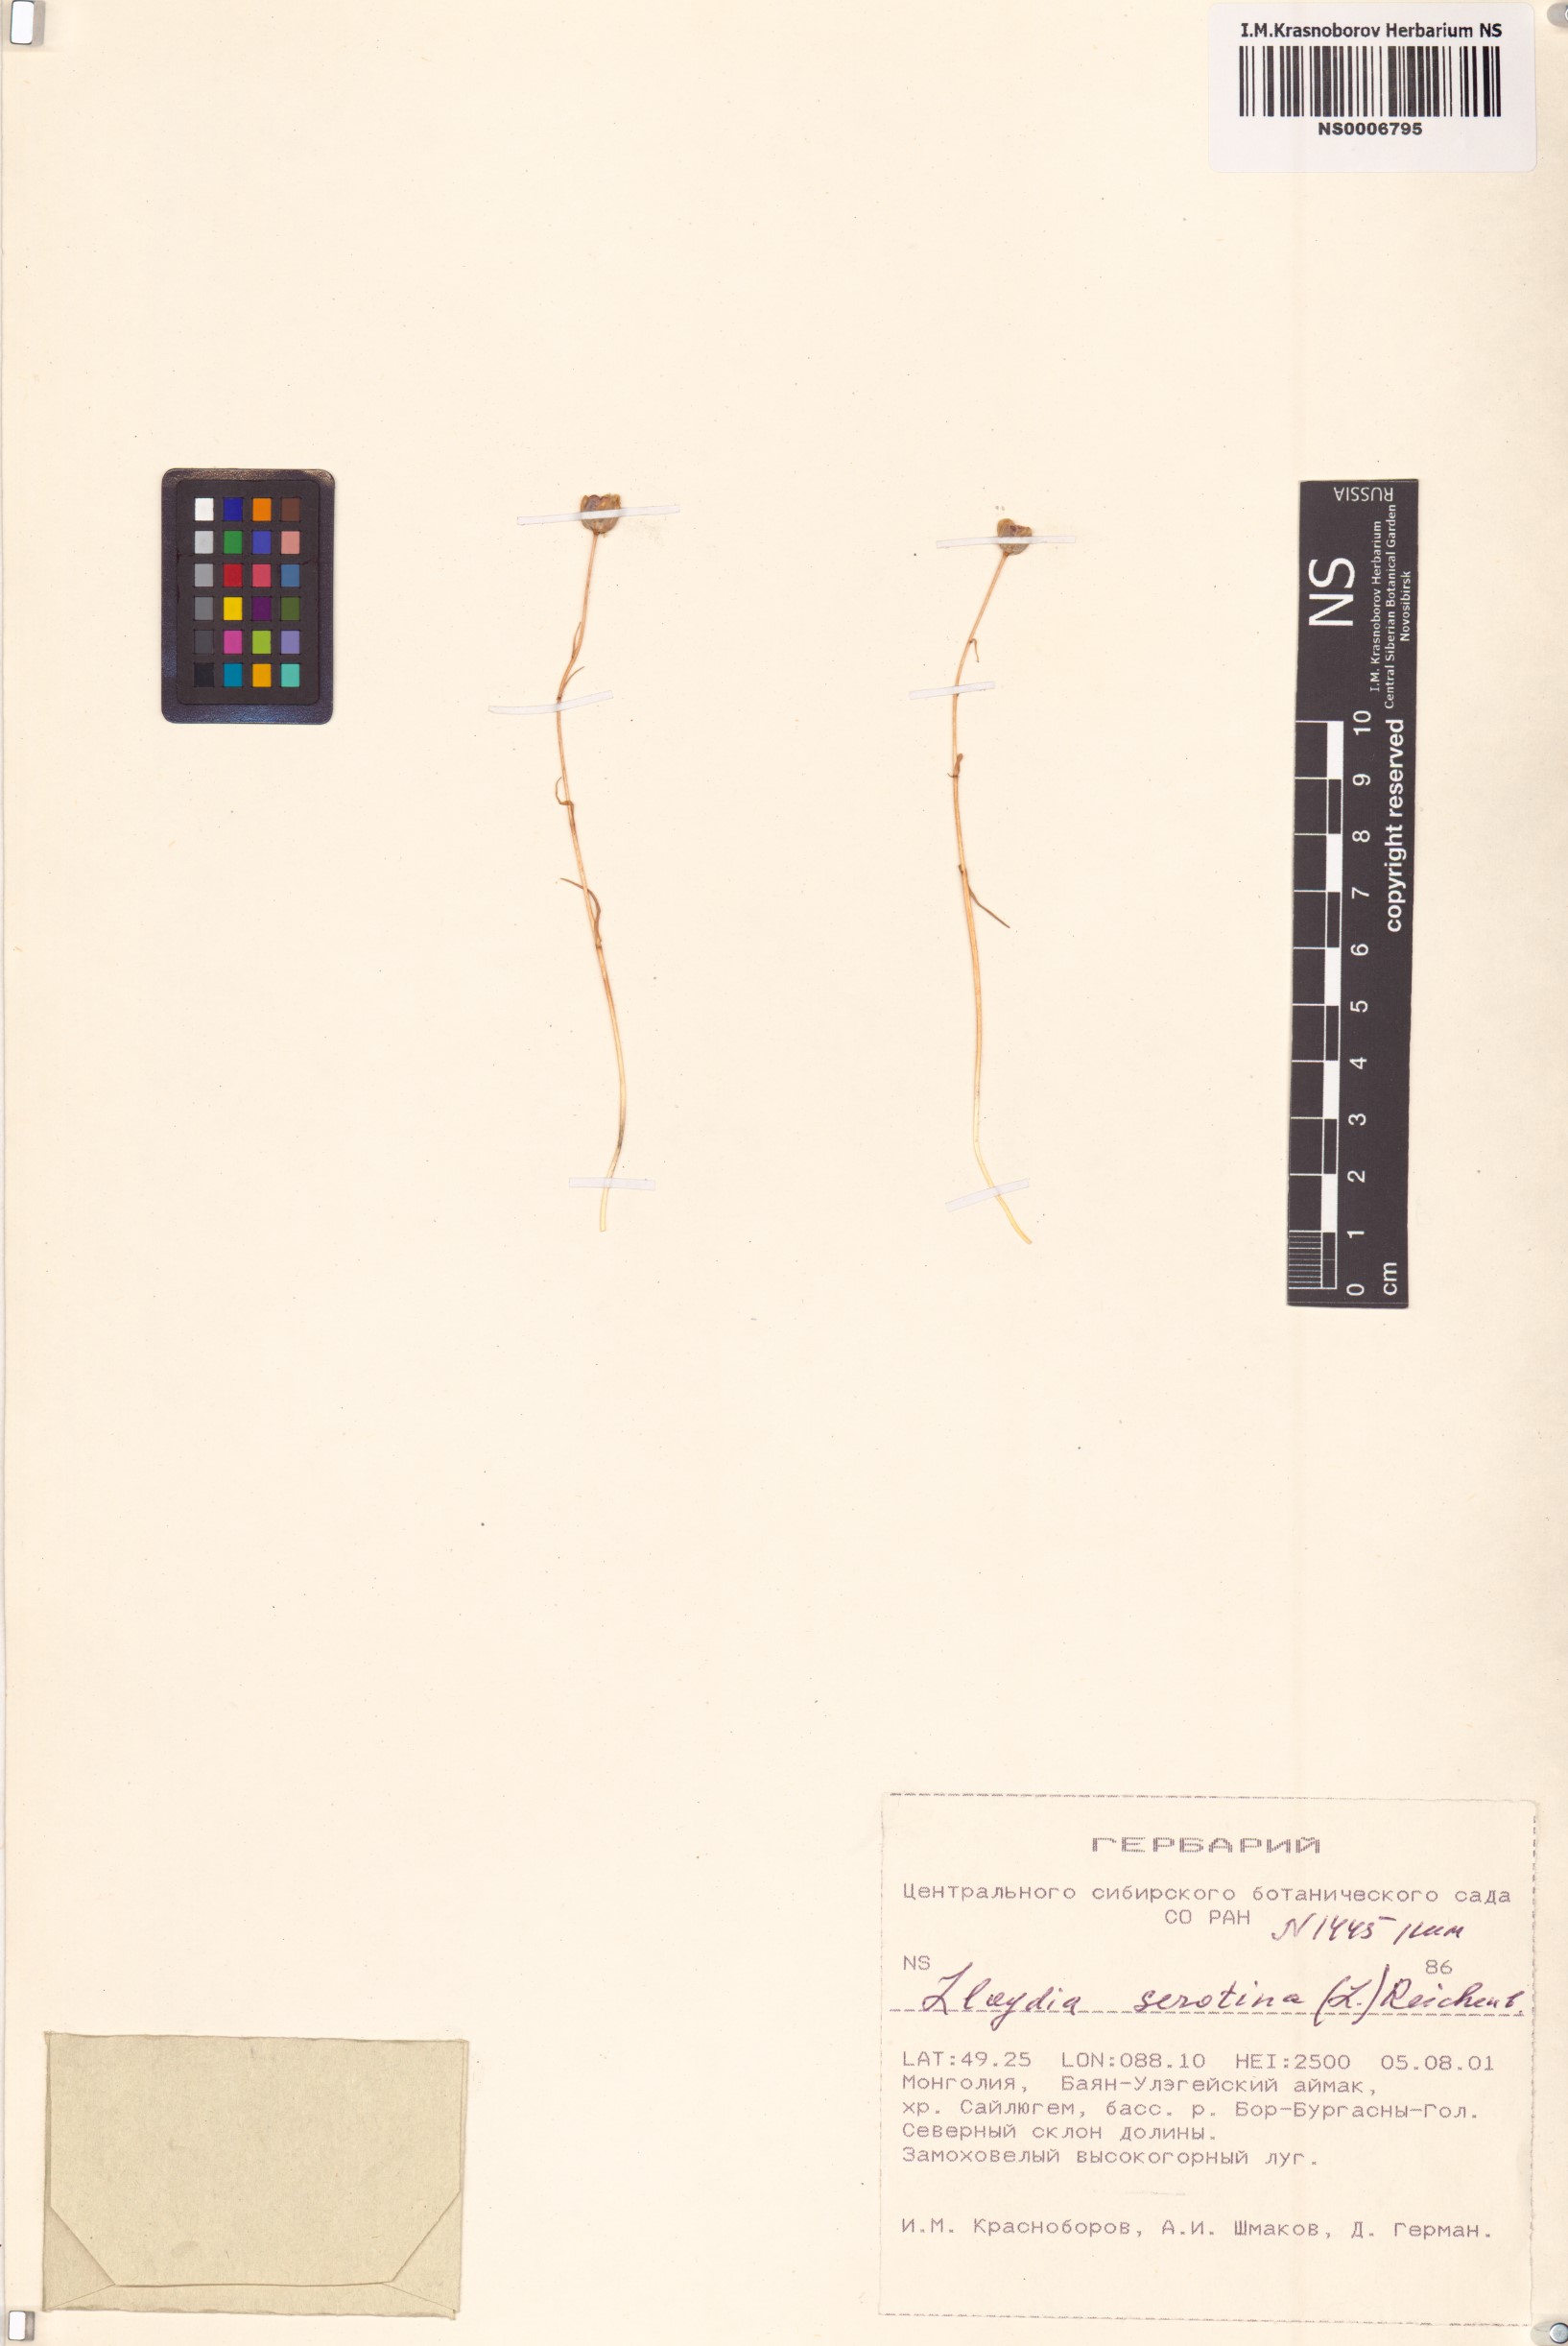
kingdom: Plantae
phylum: Tracheophyta
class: Liliopsida
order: Liliales
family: Liliaceae
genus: Gagea
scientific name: Gagea serotina
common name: Snowdon lily
